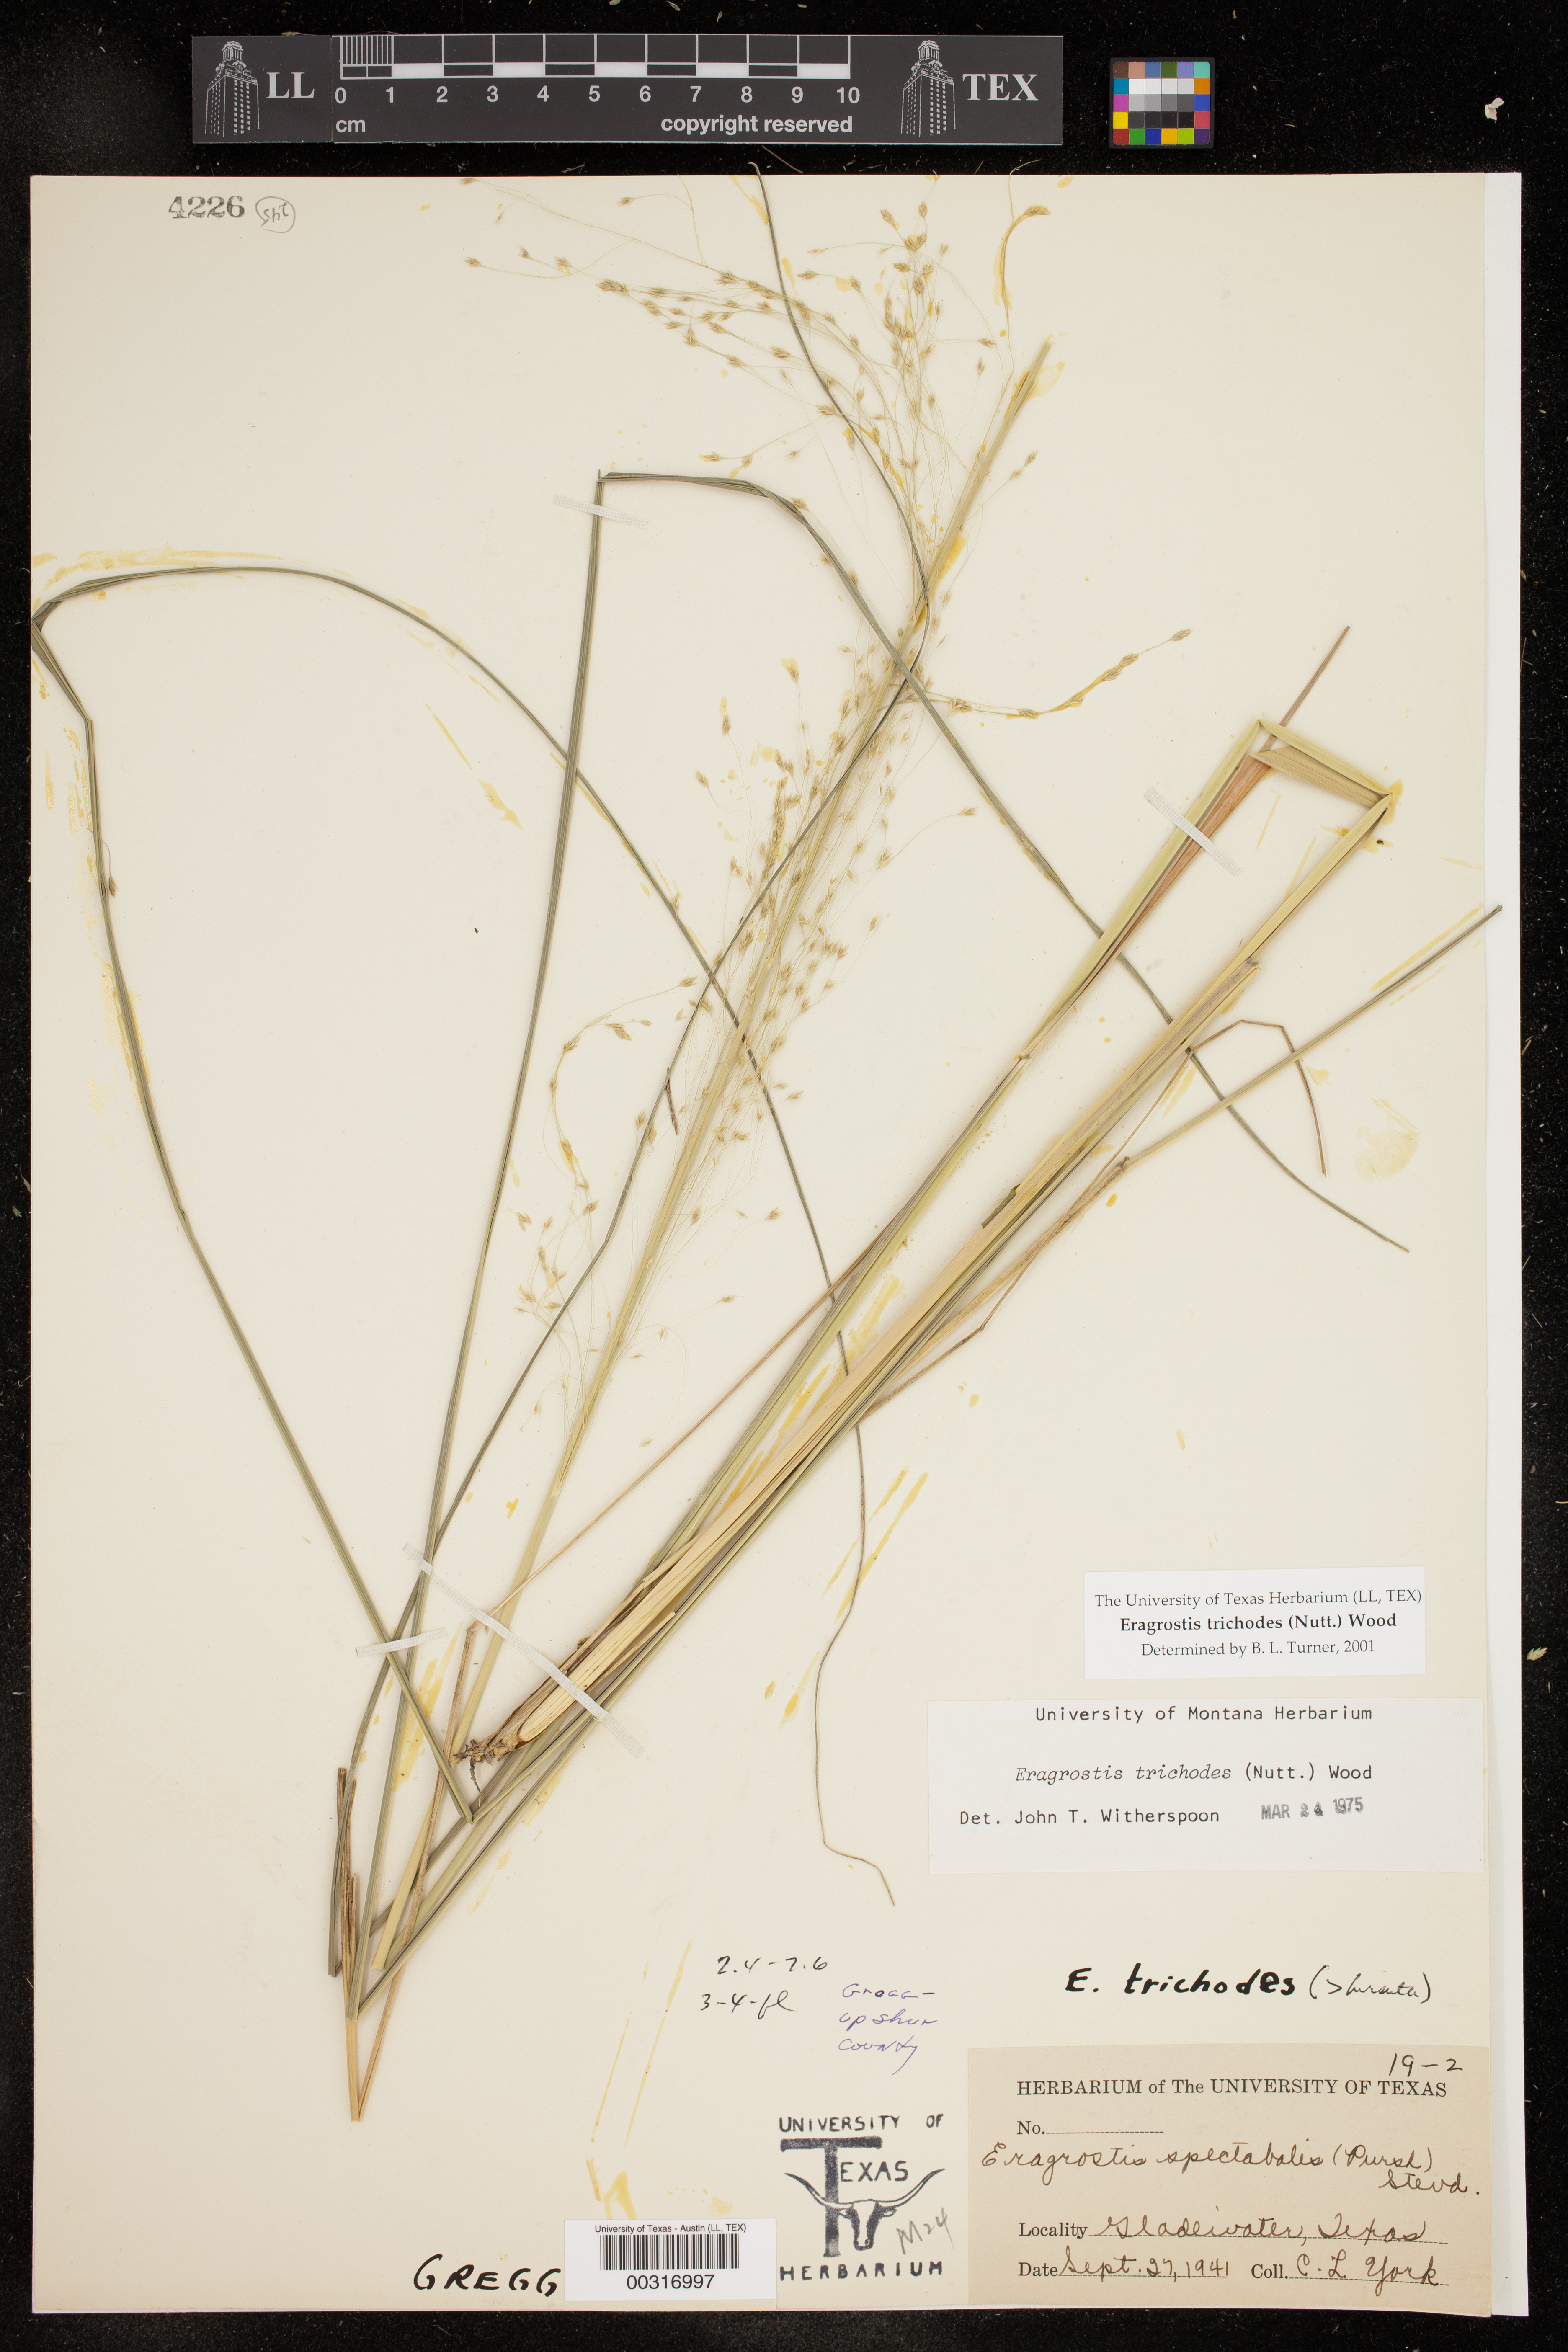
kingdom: Plantae
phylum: Tracheophyta
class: Liliopsida
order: Poales
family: Poaceae
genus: Eragrostis
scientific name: Eragrostis trichodes
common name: Sand love grass
